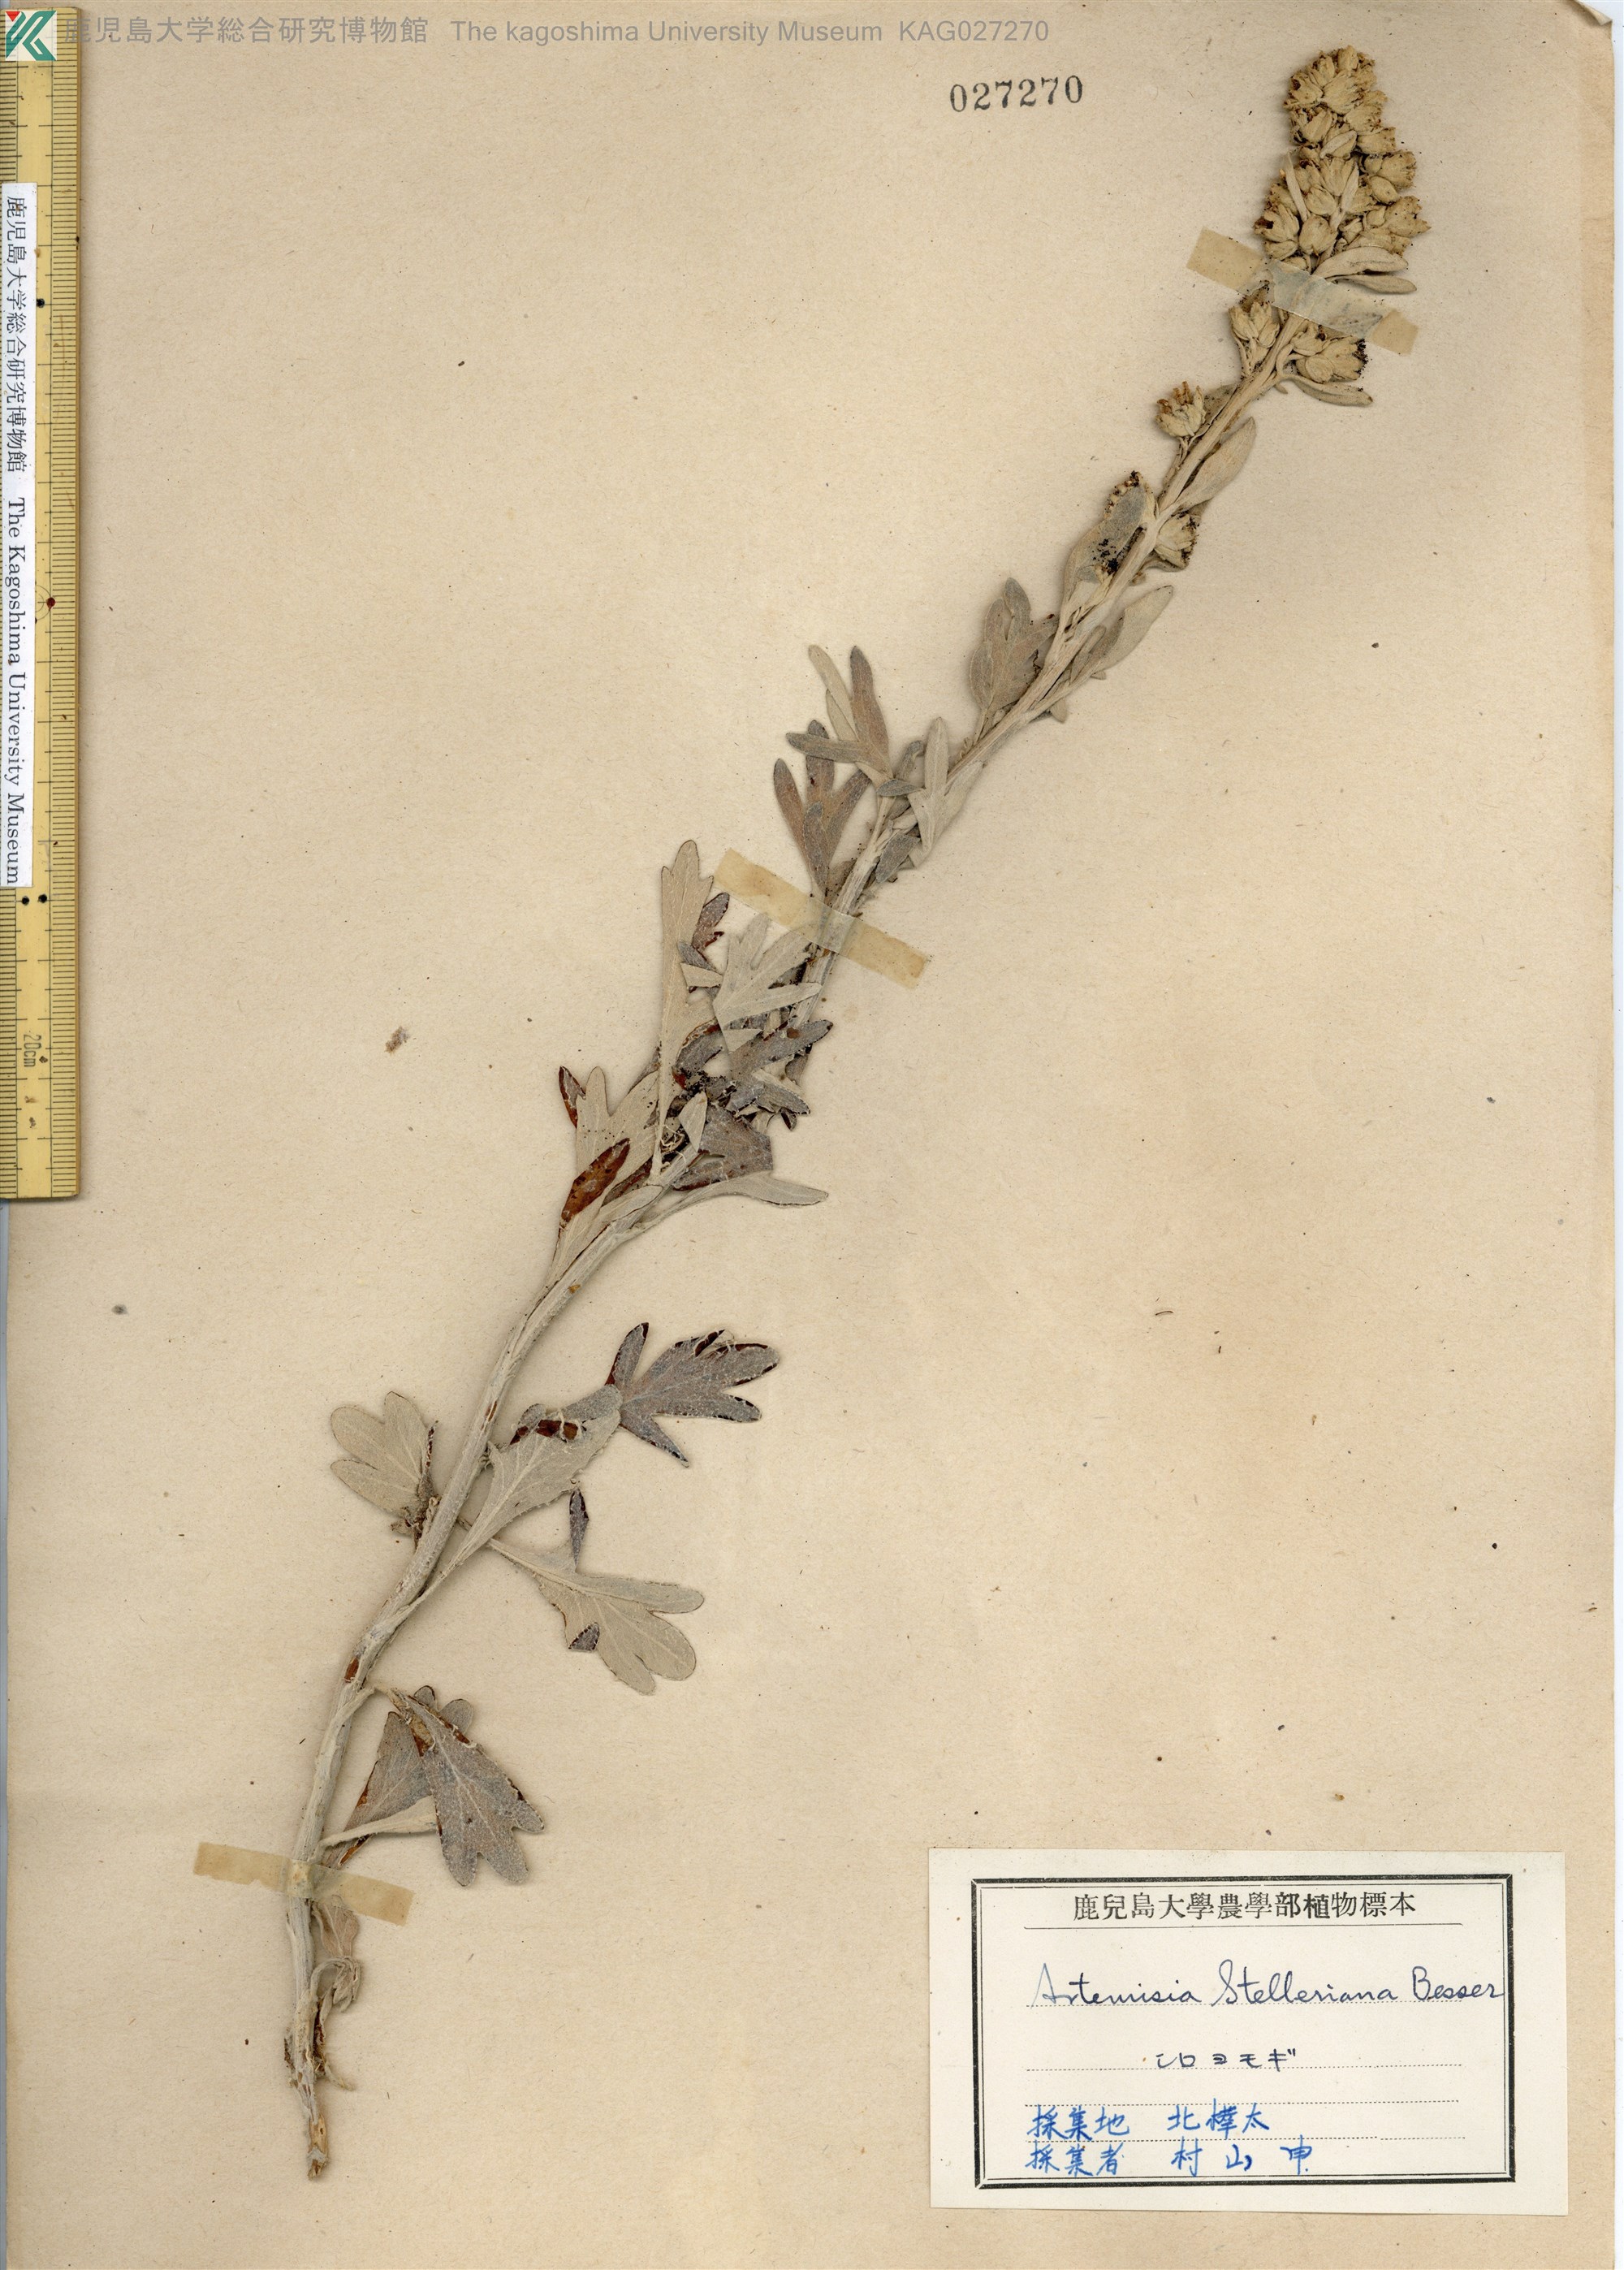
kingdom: Plantae
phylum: Tracheophyta
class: Magnoliopsida
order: Asterales
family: Asteraceae
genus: Artemisia
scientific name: Artemisia stelleriana
